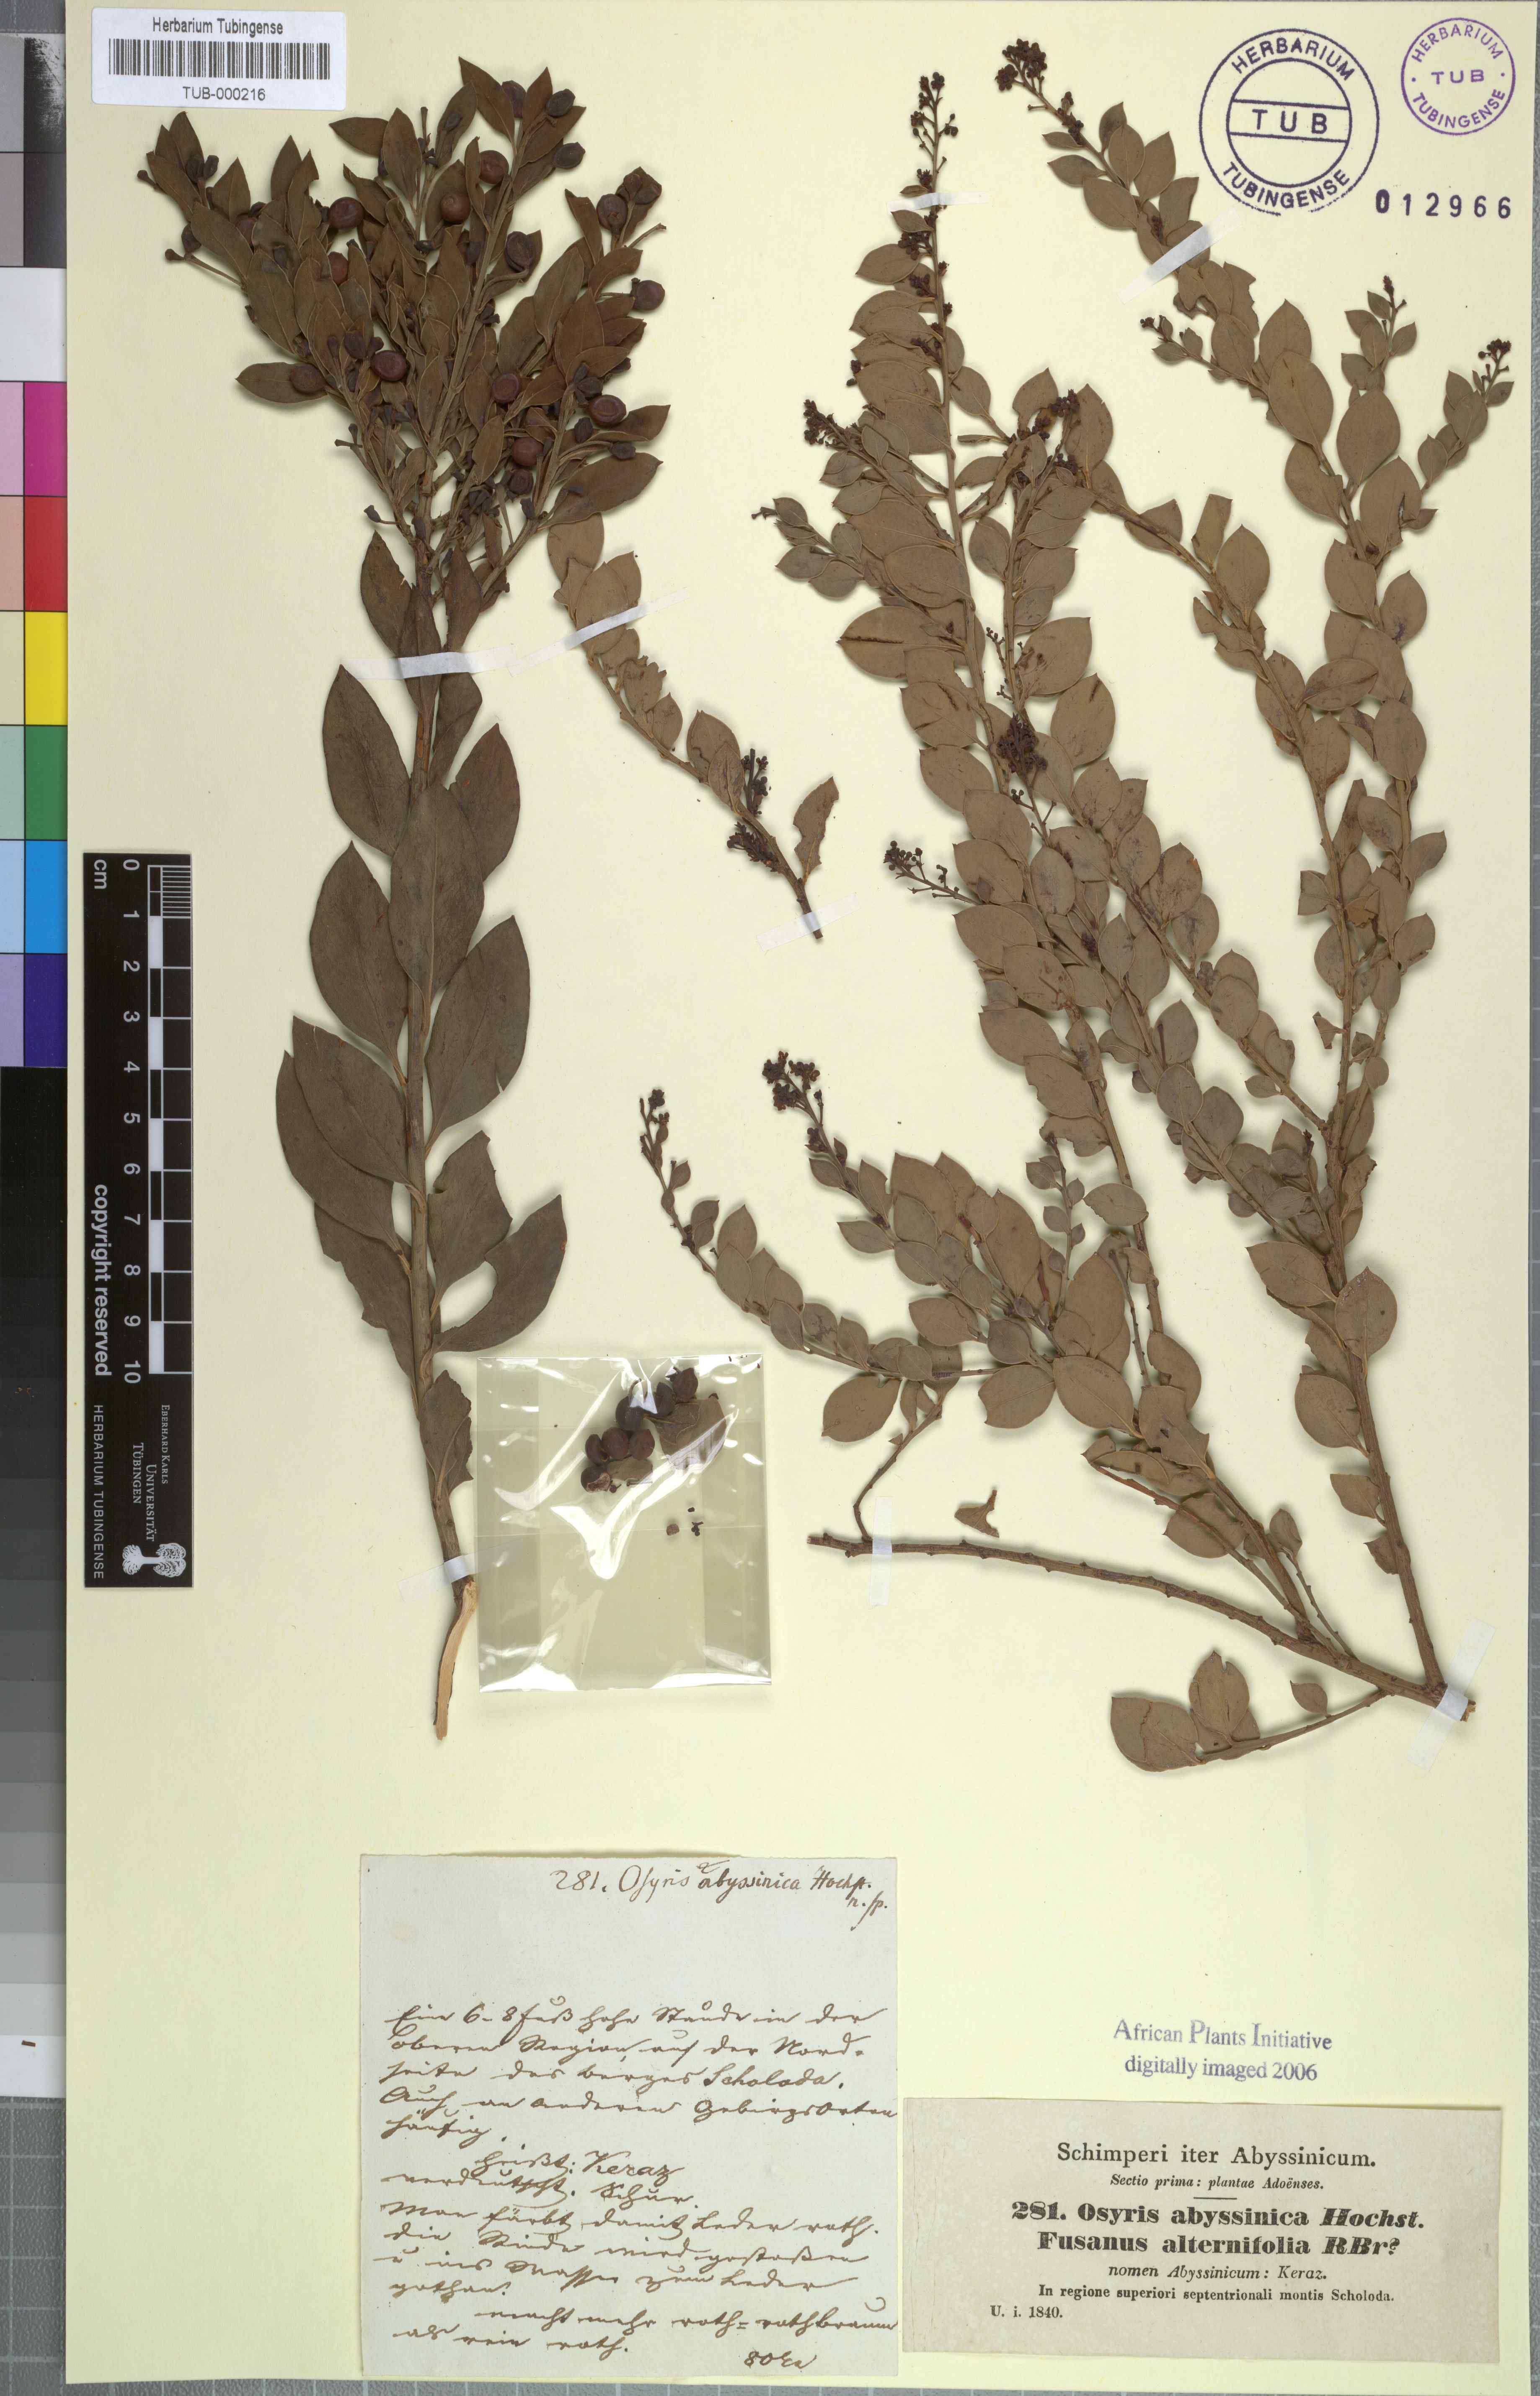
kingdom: Plantae
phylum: Tracheophyta
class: Magnoliopsida
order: Santalales
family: Santalaceae
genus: Osyris
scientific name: Osyris quadripartita
